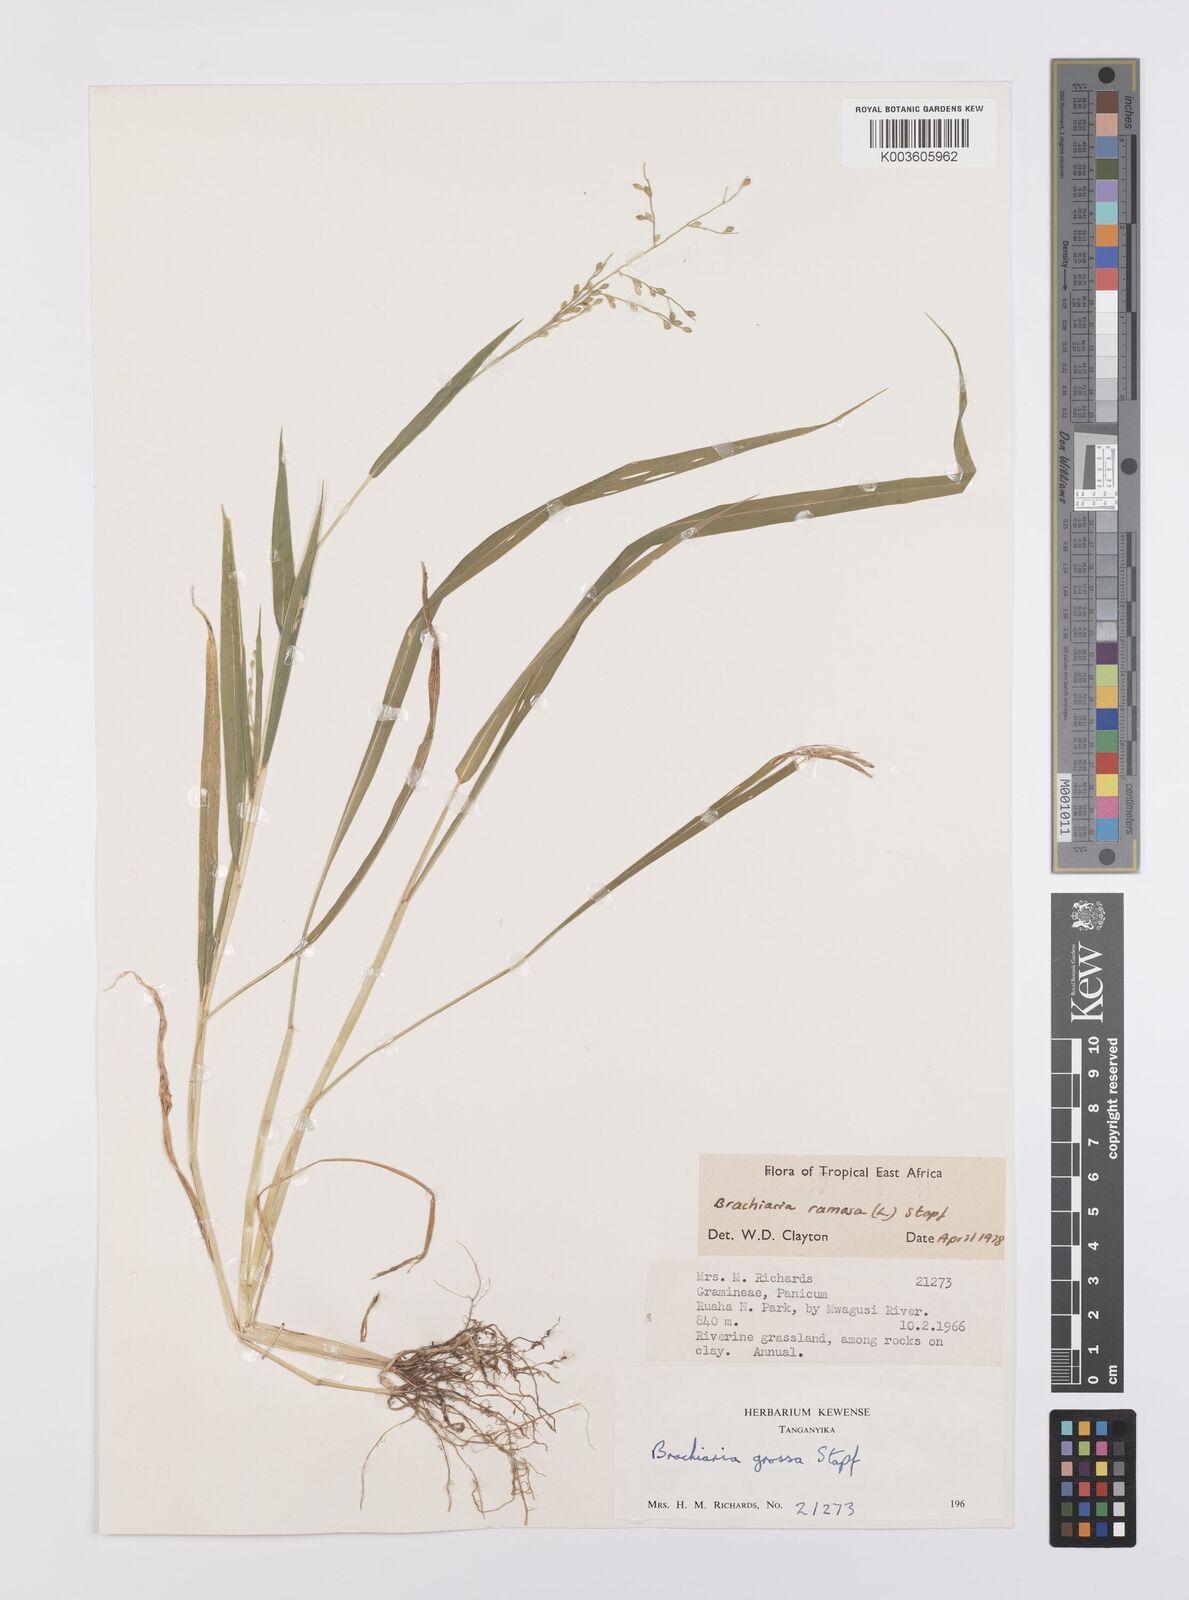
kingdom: Plantae
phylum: Tracheophyta
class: Liliopsida
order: Poales
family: Poaceae
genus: Urochloa
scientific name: Urochloa ramosa
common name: Browntop millet
